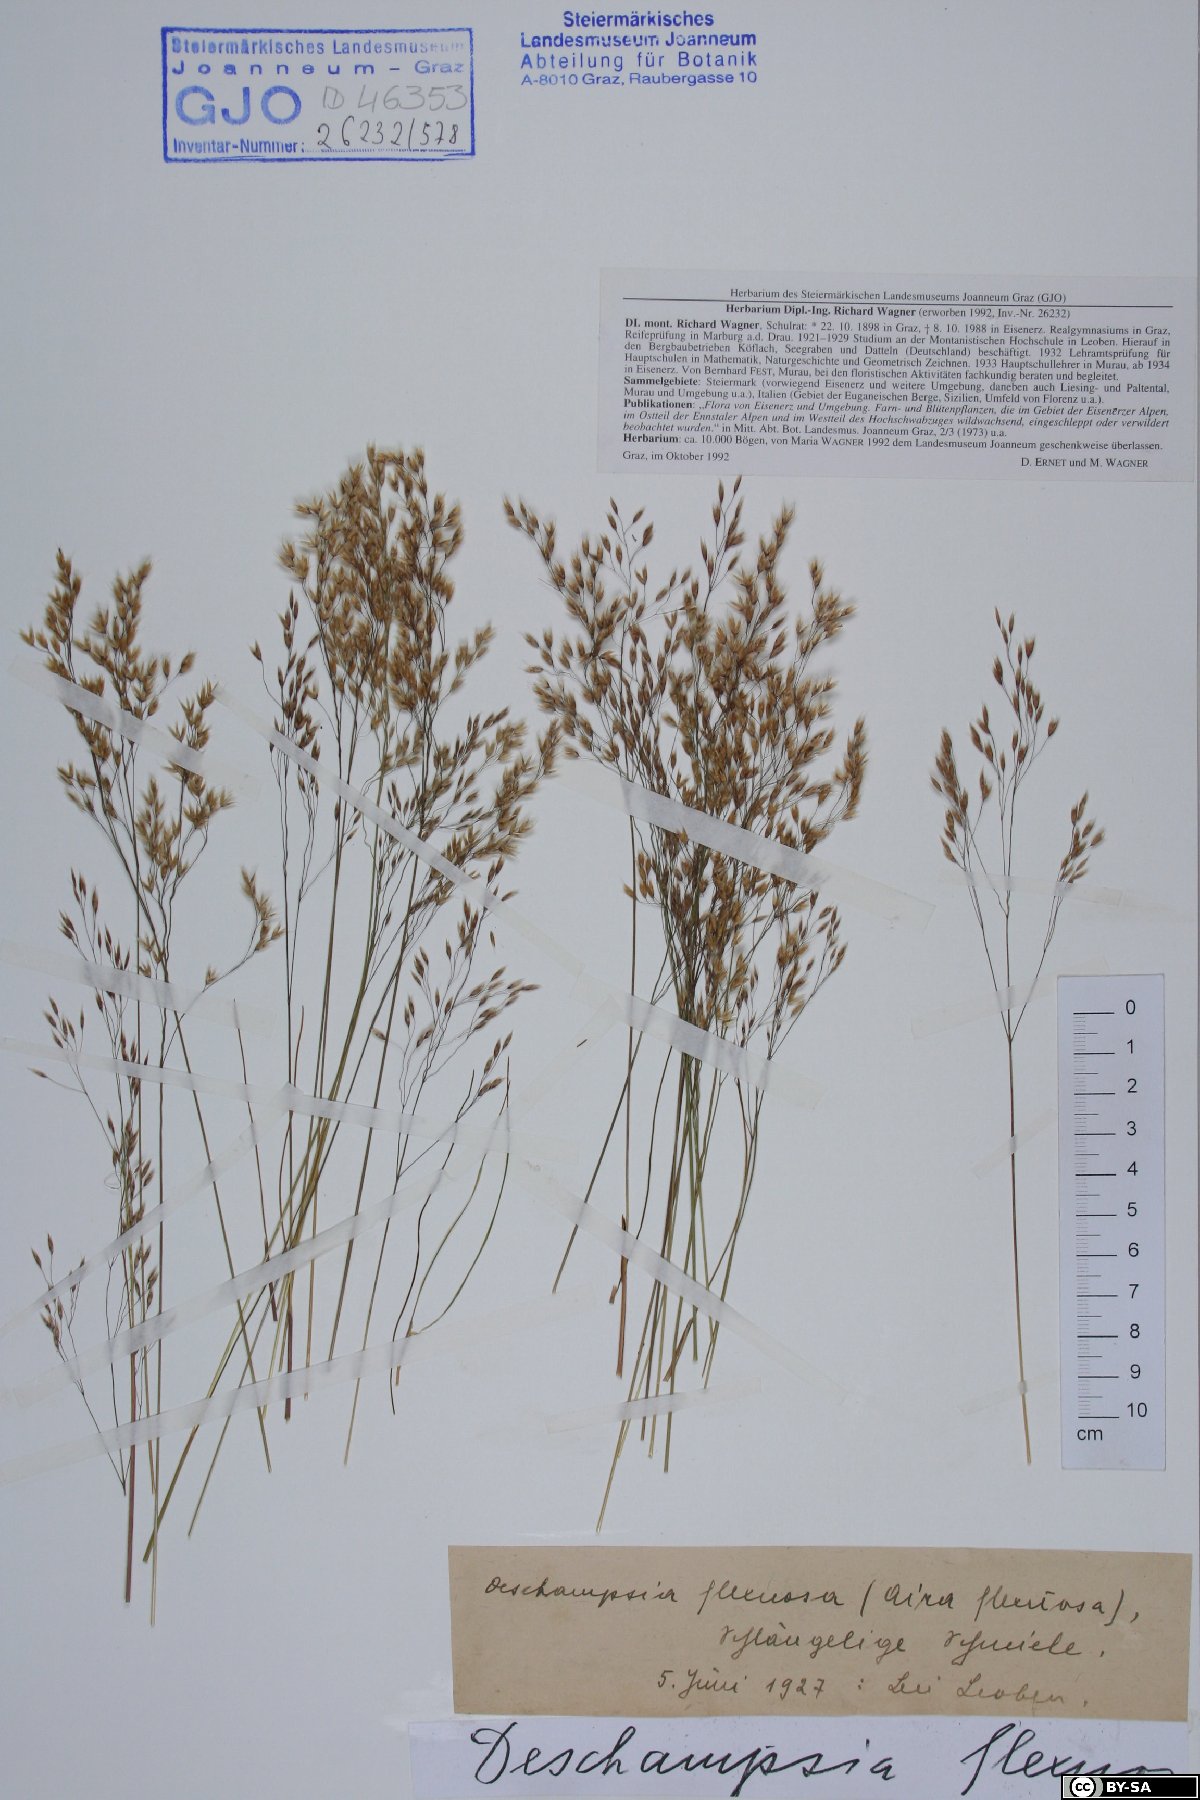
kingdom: Plantae
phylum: Tracheophyta
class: Liliopsida
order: Poales
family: Poaceae
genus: Avenella
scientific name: Avenella flexuosa
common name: Wavy hairgrass
